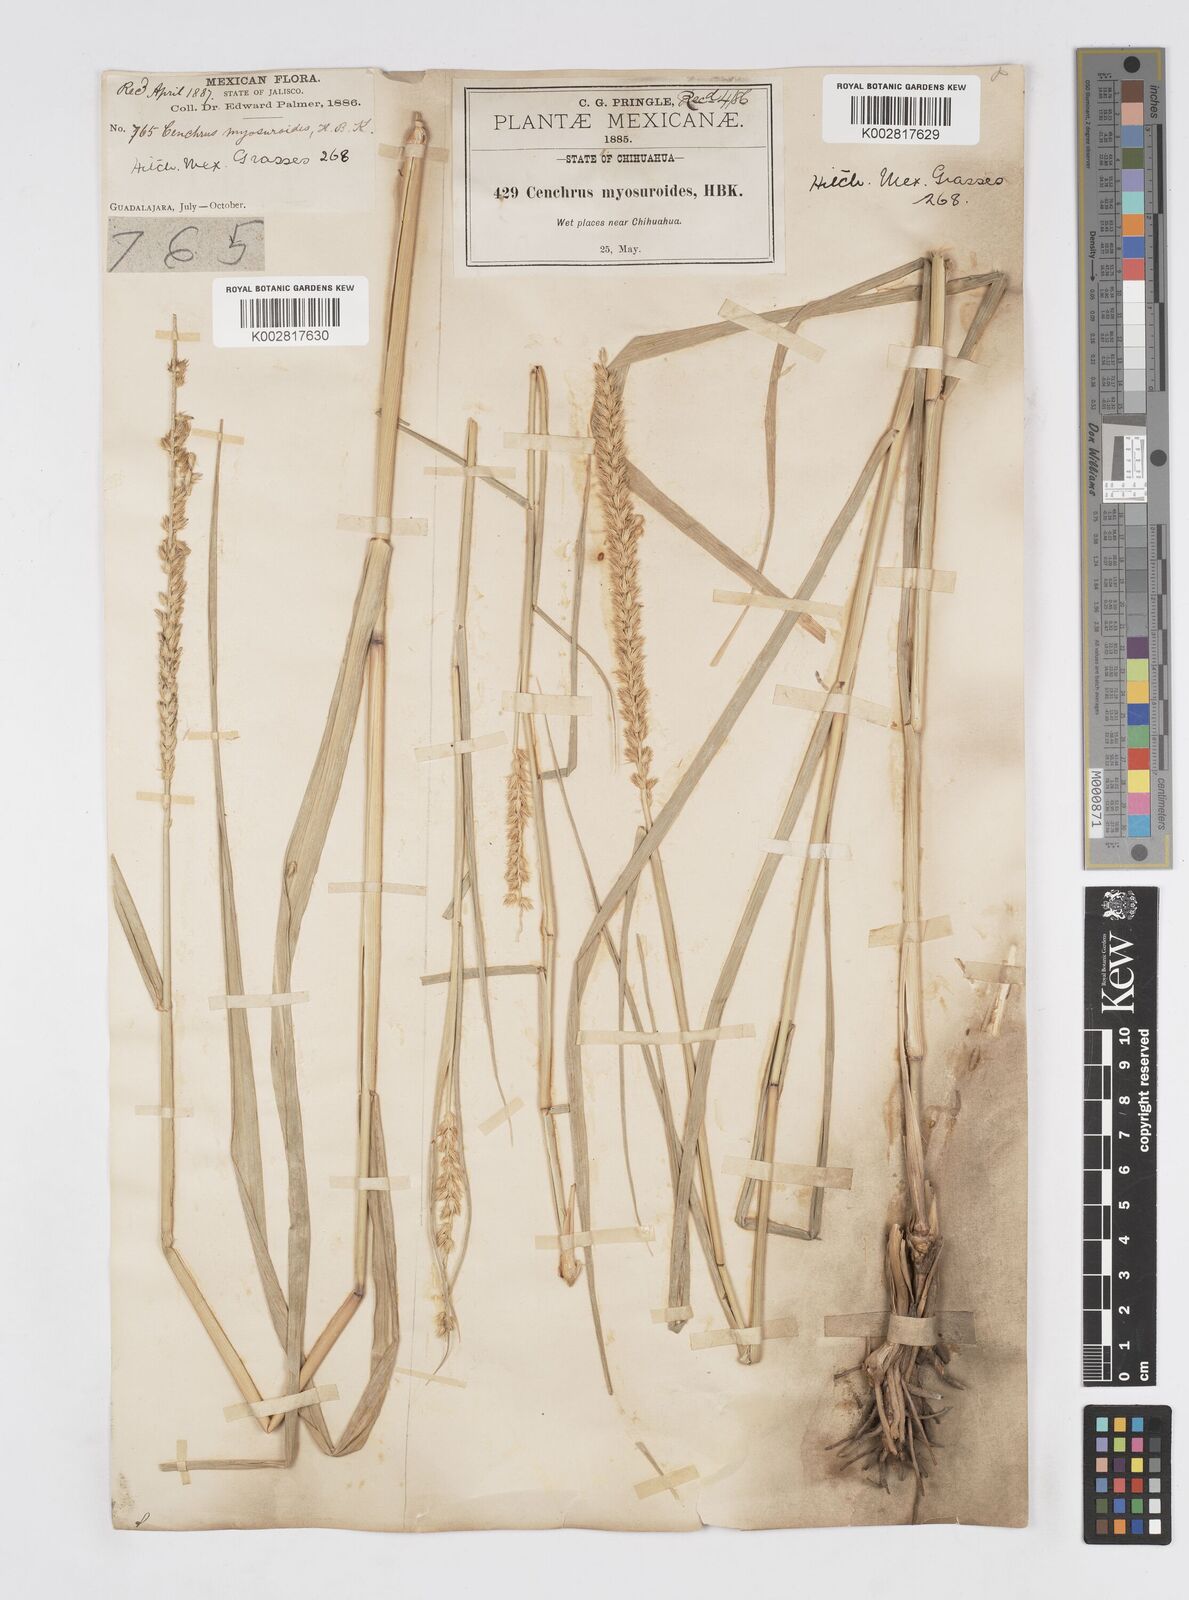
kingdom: Plantae
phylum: Tracheophyta
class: Liliopsida
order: Poales
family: Poaceae
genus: Cenchrus
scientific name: Cenchrus myosuroides
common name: Big sandbur
